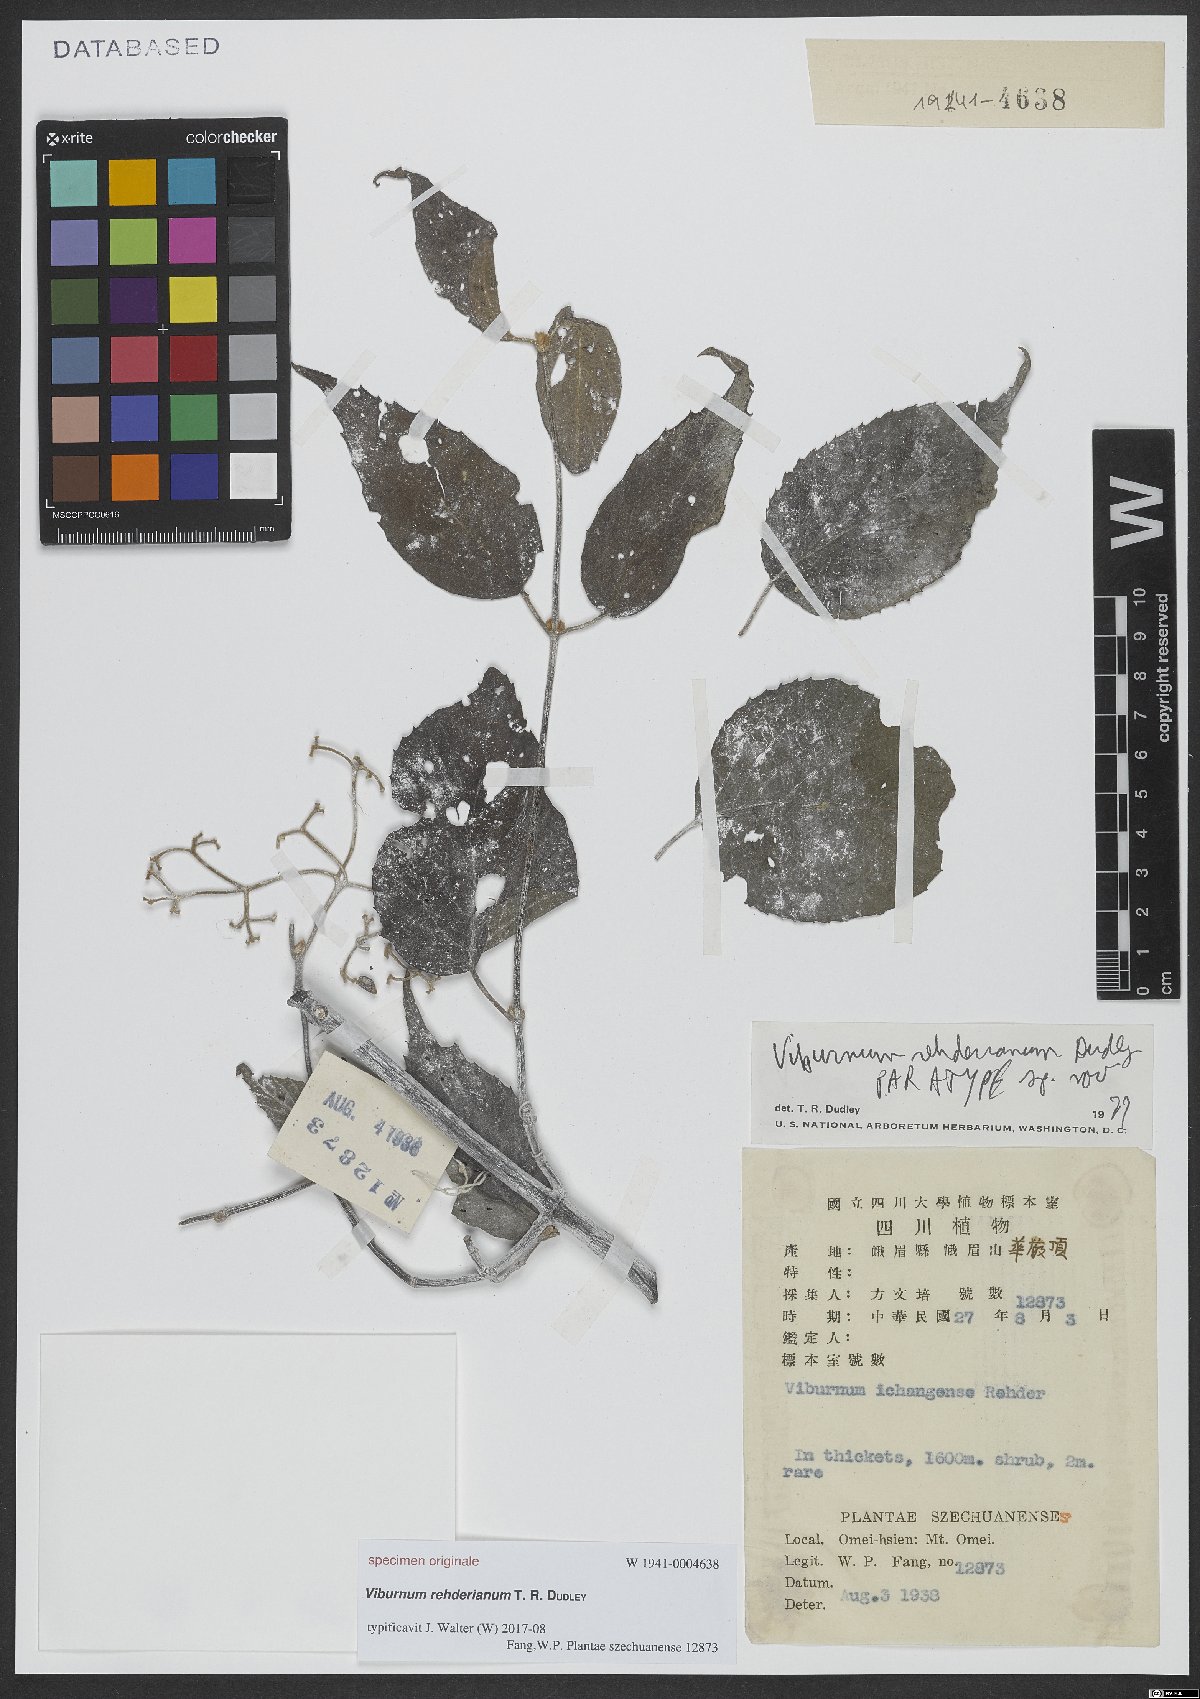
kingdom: Plantae
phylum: Tracheophyta
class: Magnoliopsida
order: Dipsacales
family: Viburnaceae
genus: Viburnum
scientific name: Viburnum erosum
